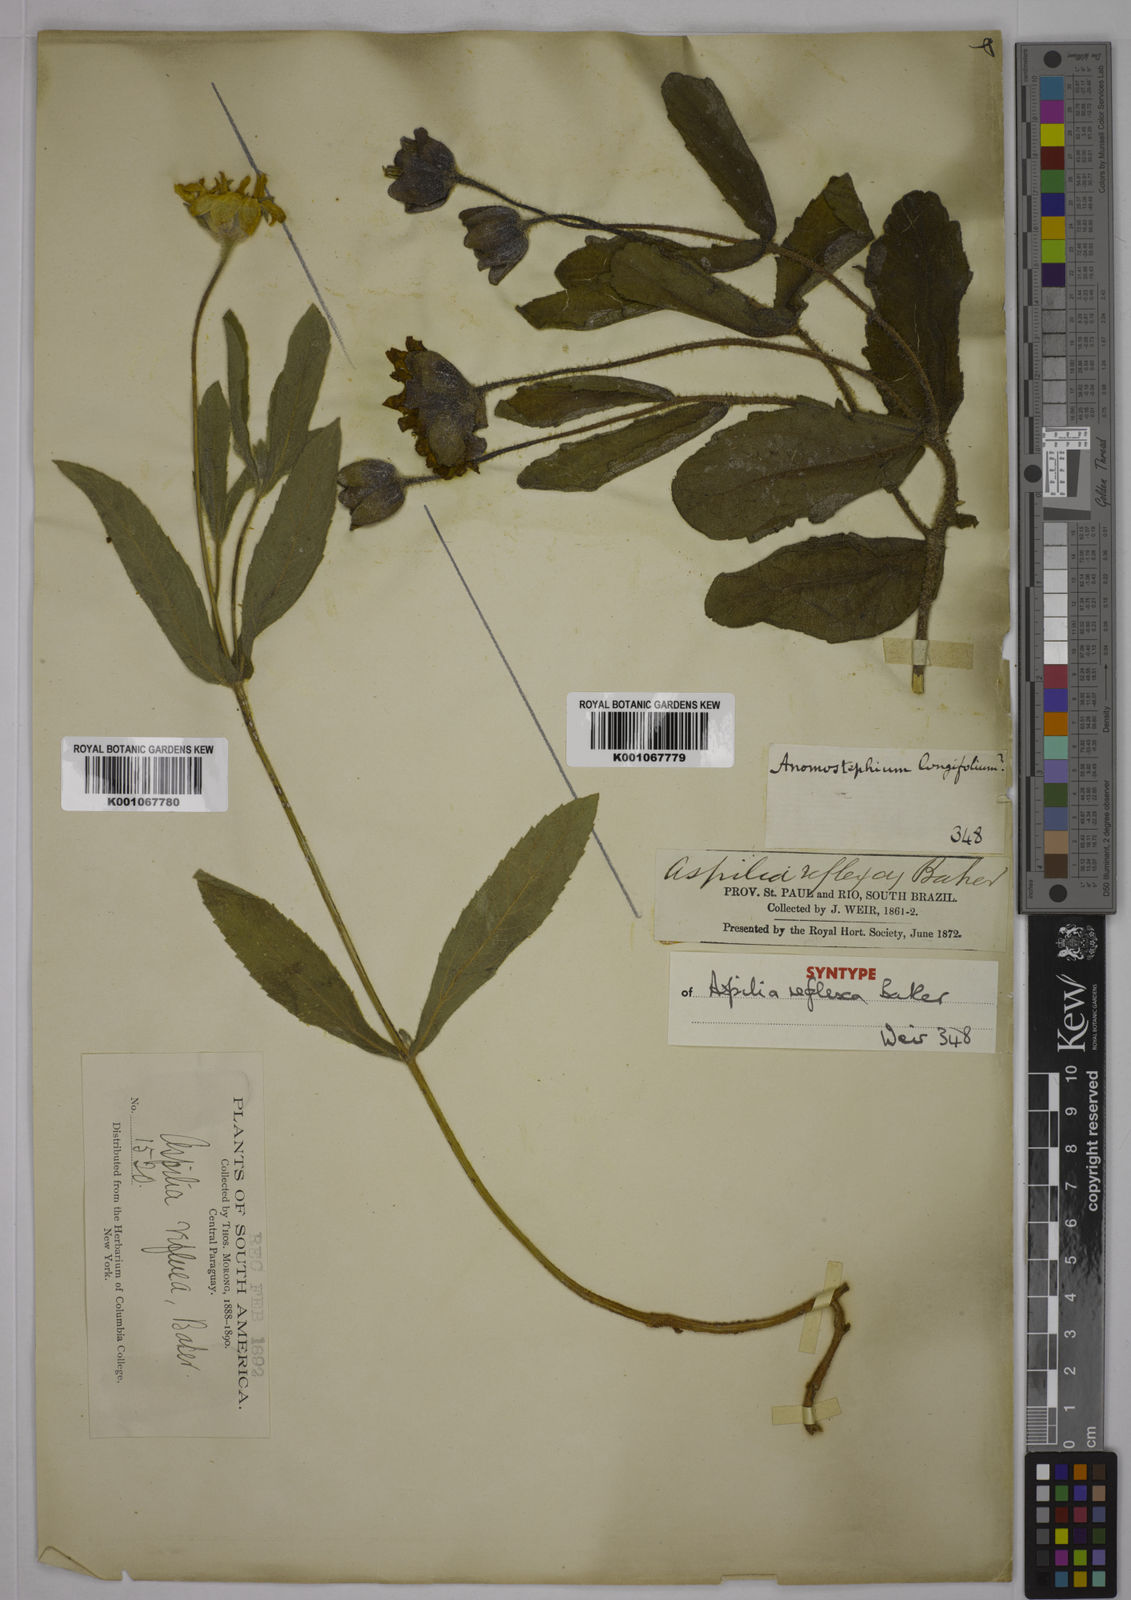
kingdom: Plantae
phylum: Tracheophyta
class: Magnoliopsida
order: Asterales
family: Asteraceae
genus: Wedelia
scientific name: Wedelia reflexa
